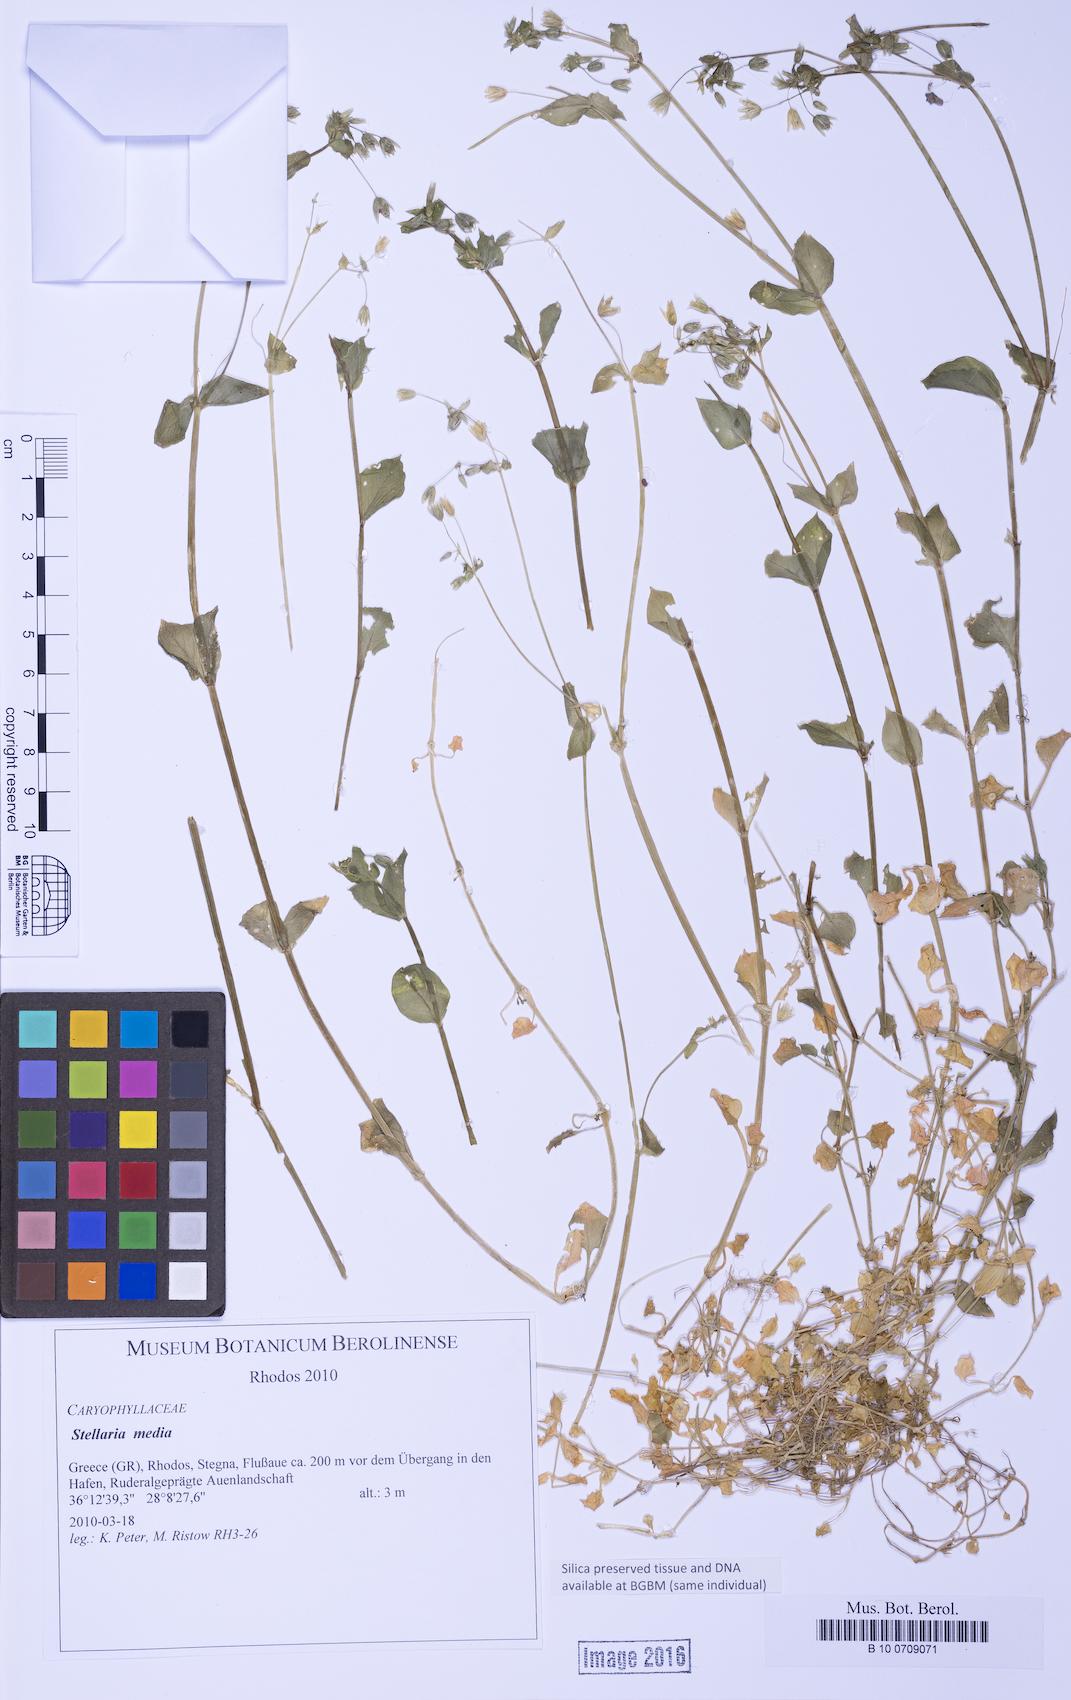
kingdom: Plantae
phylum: Tracheophyta
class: Magnoliopsida
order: Caryophyllales
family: Caryophyllaceae
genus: Stellaria
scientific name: Stellaria ruderalis
